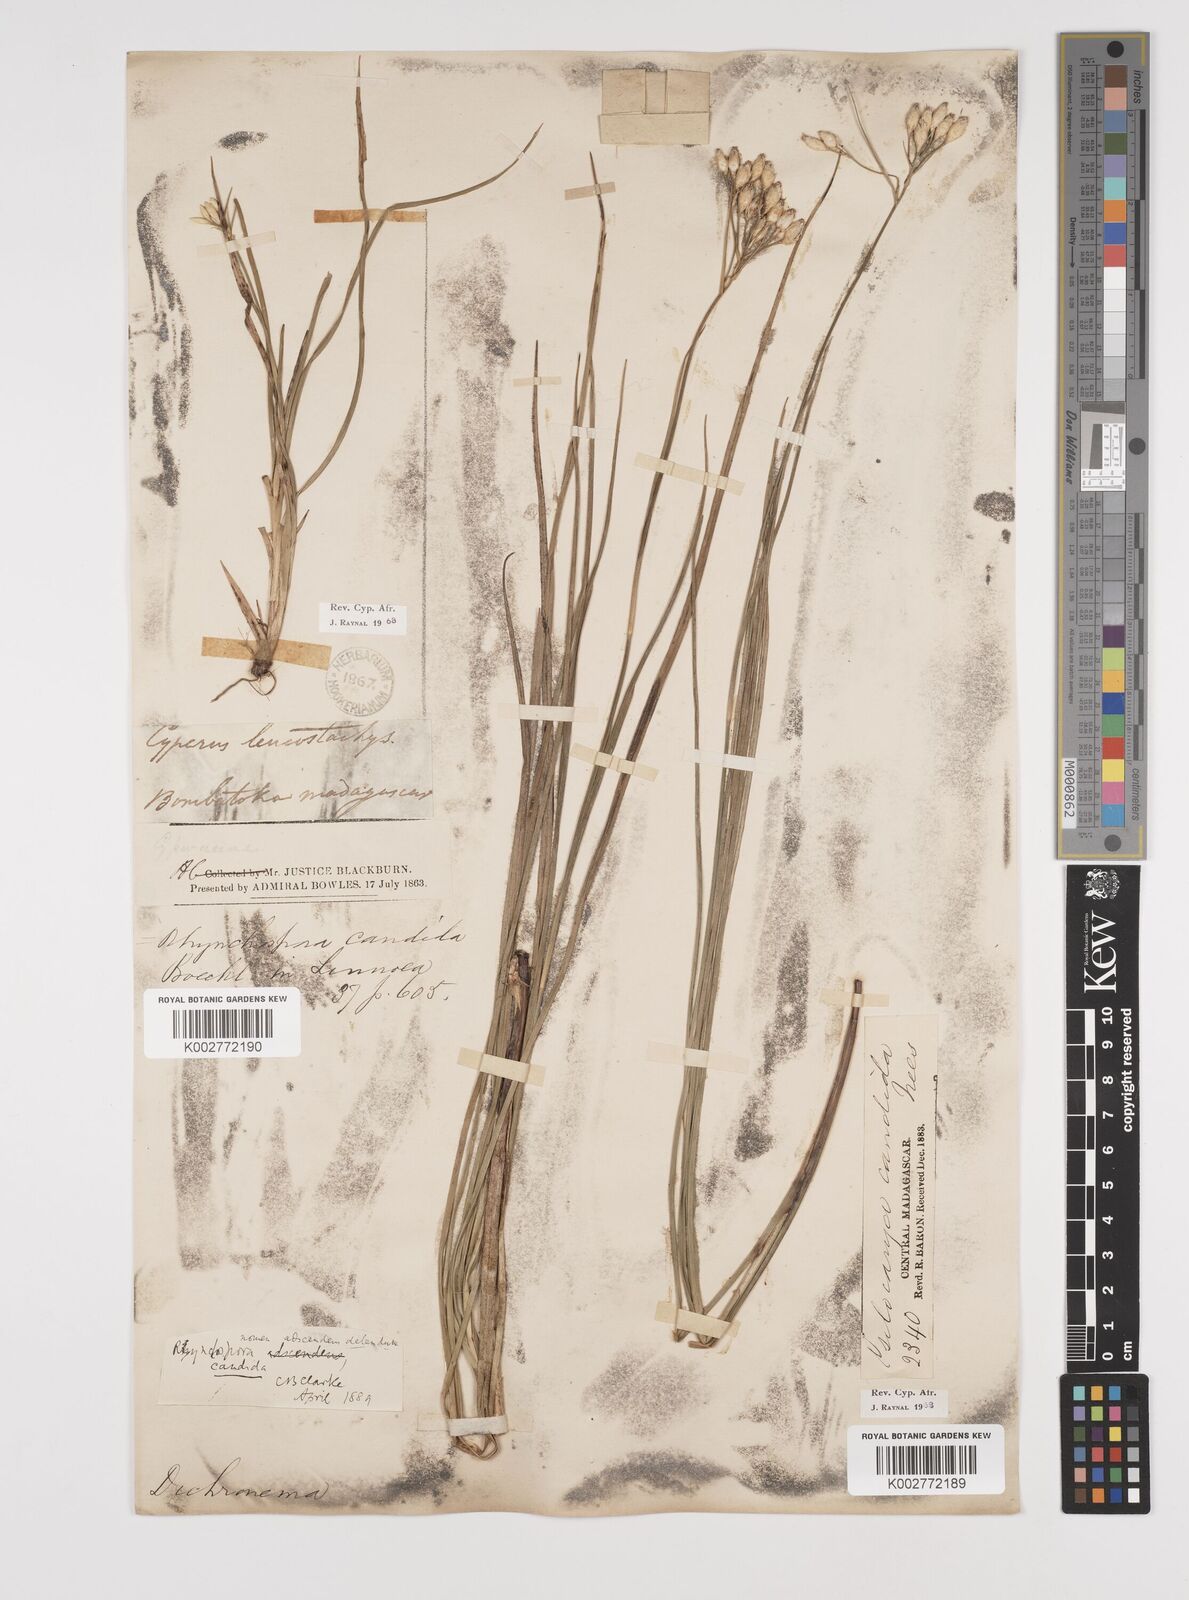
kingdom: Plantae
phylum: Tracheophyta
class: Liliopsida
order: Poales
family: Cyperaceae
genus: Rhynchospora
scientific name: Rhynchospora candida
